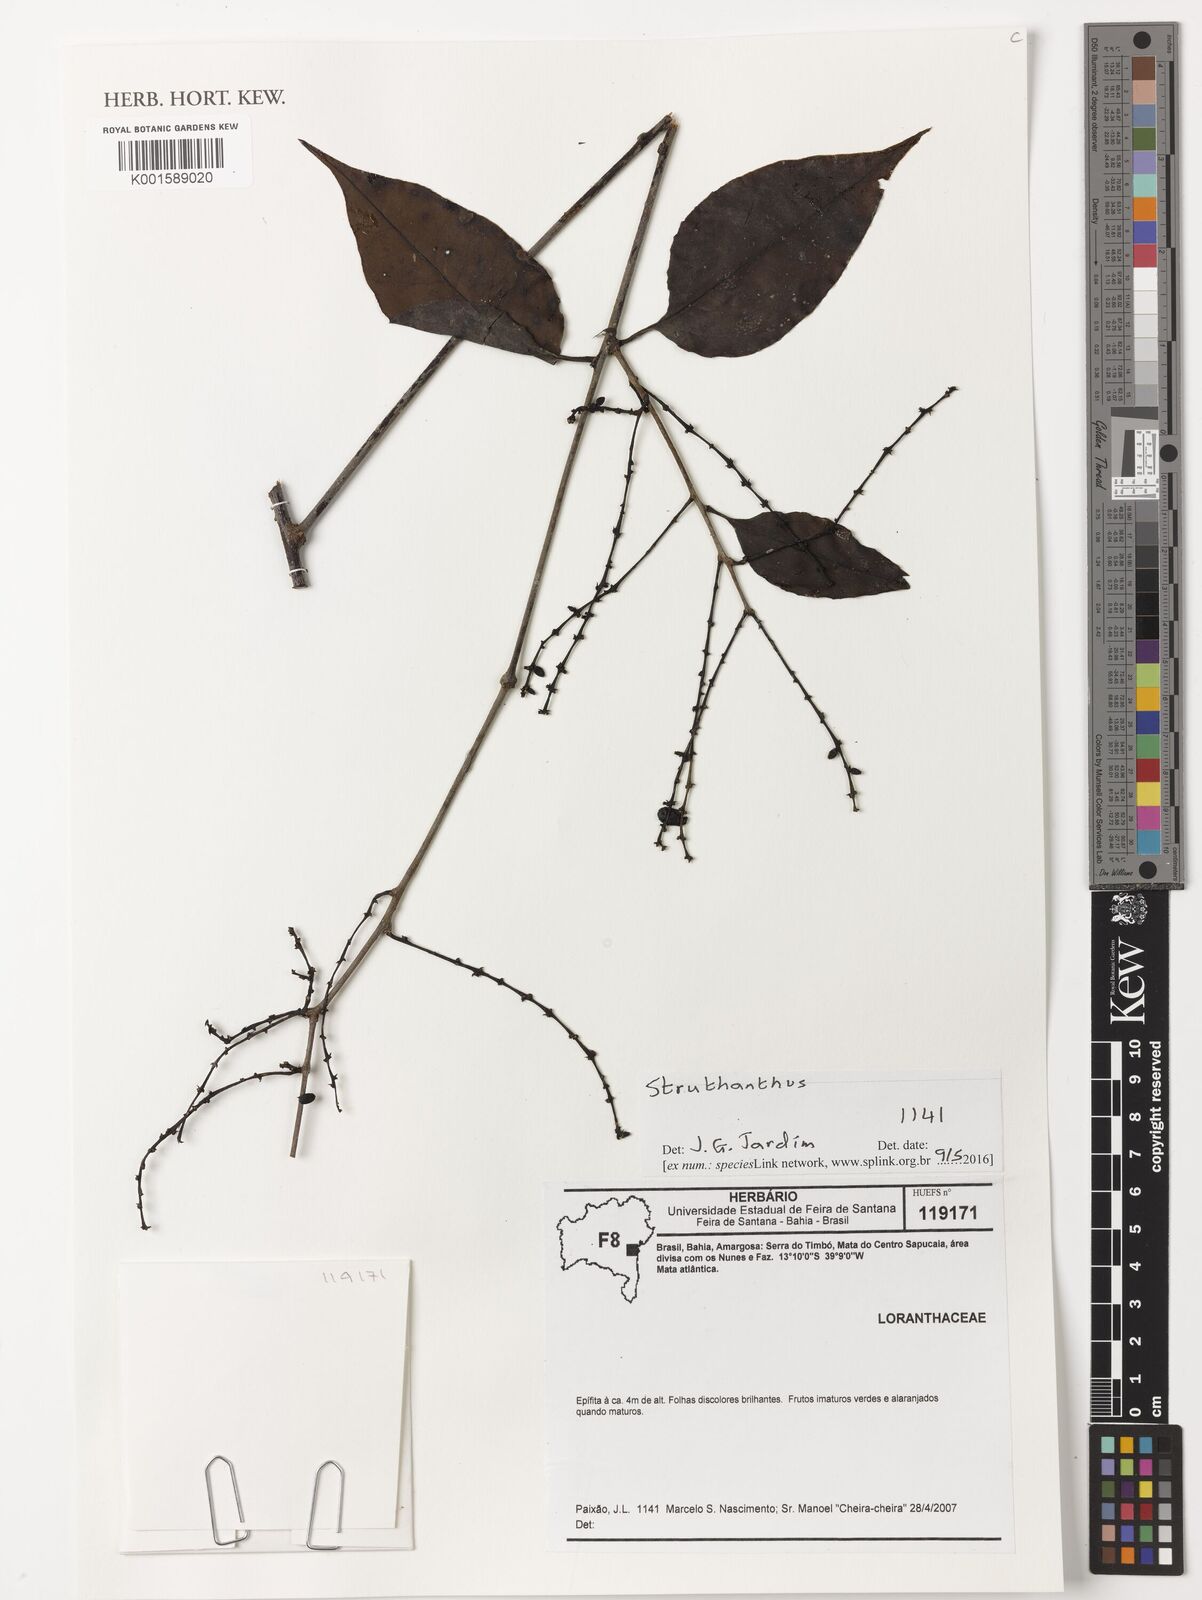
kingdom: Plantae
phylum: Tracheophyta
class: Magnoliopsida
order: Santalales
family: Loranthaceae
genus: Struthanthus
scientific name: Struthanthus
